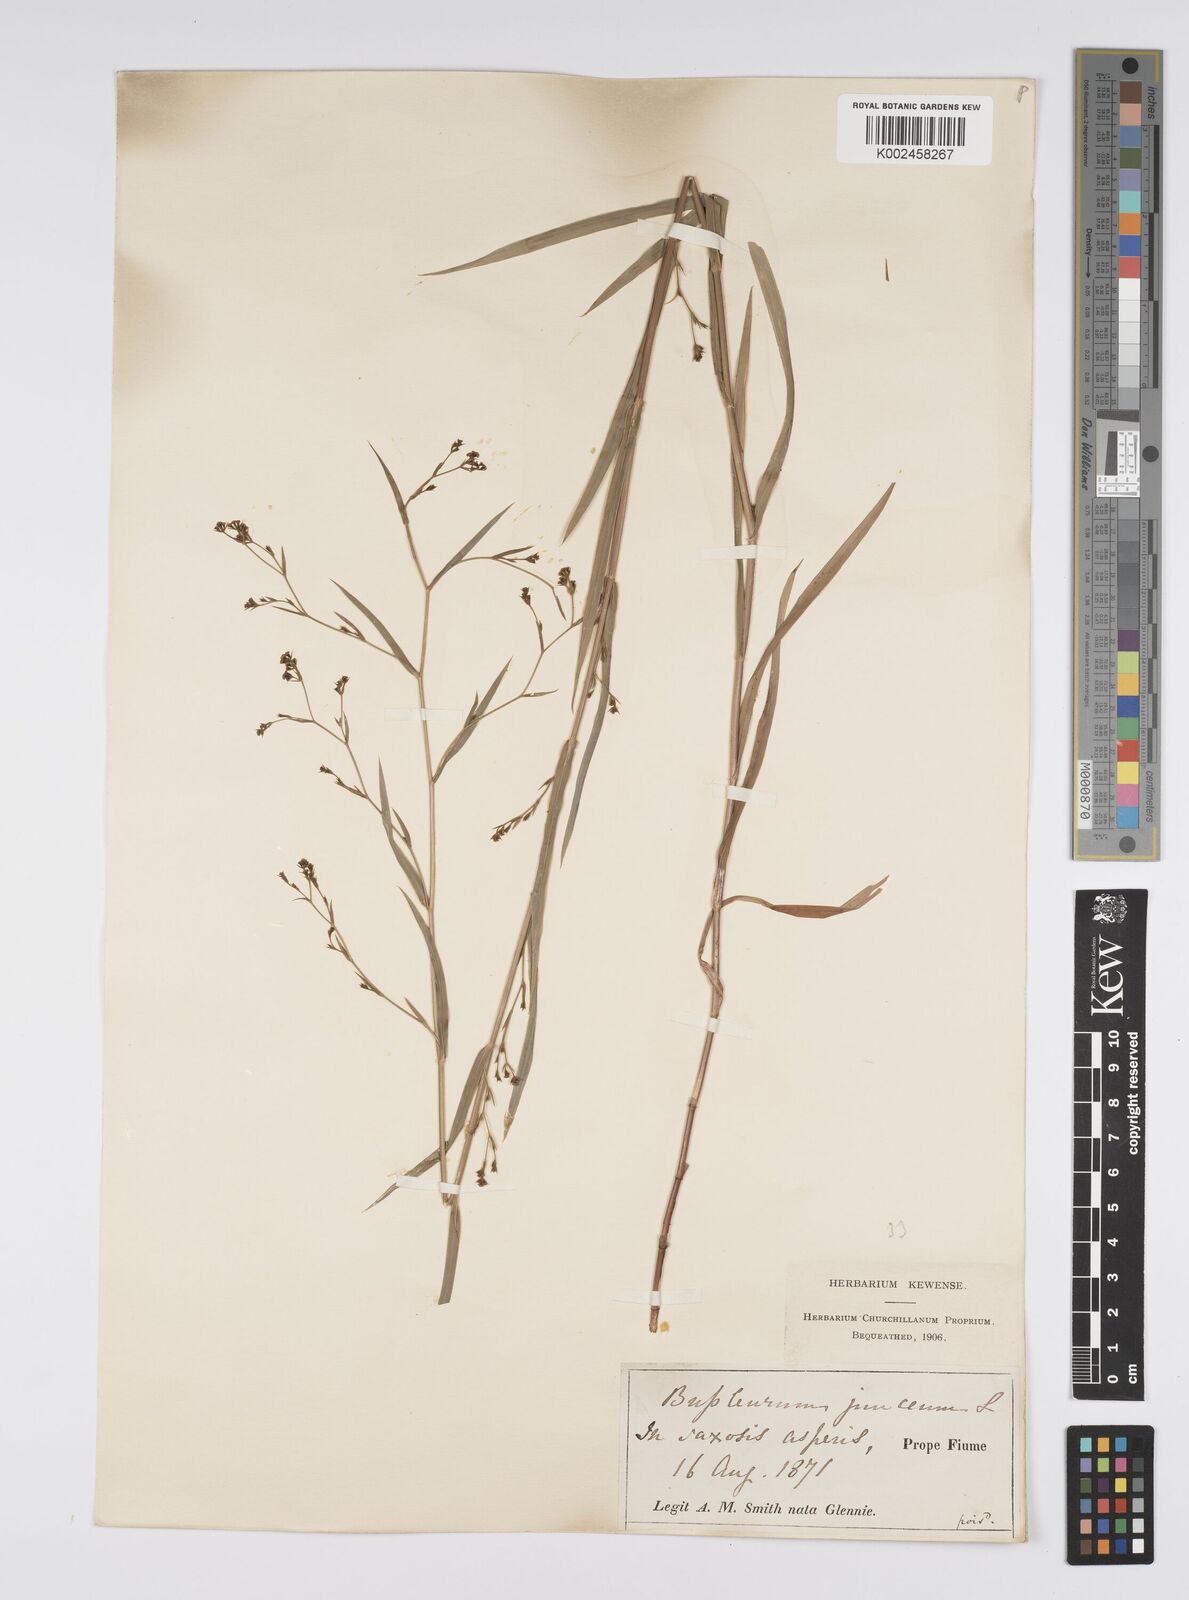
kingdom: Plantae
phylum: Tracheophyta
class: Magnoliopsida
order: Apiales
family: Apiaceae
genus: Bupleurum
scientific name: Bupleurum praealtum
